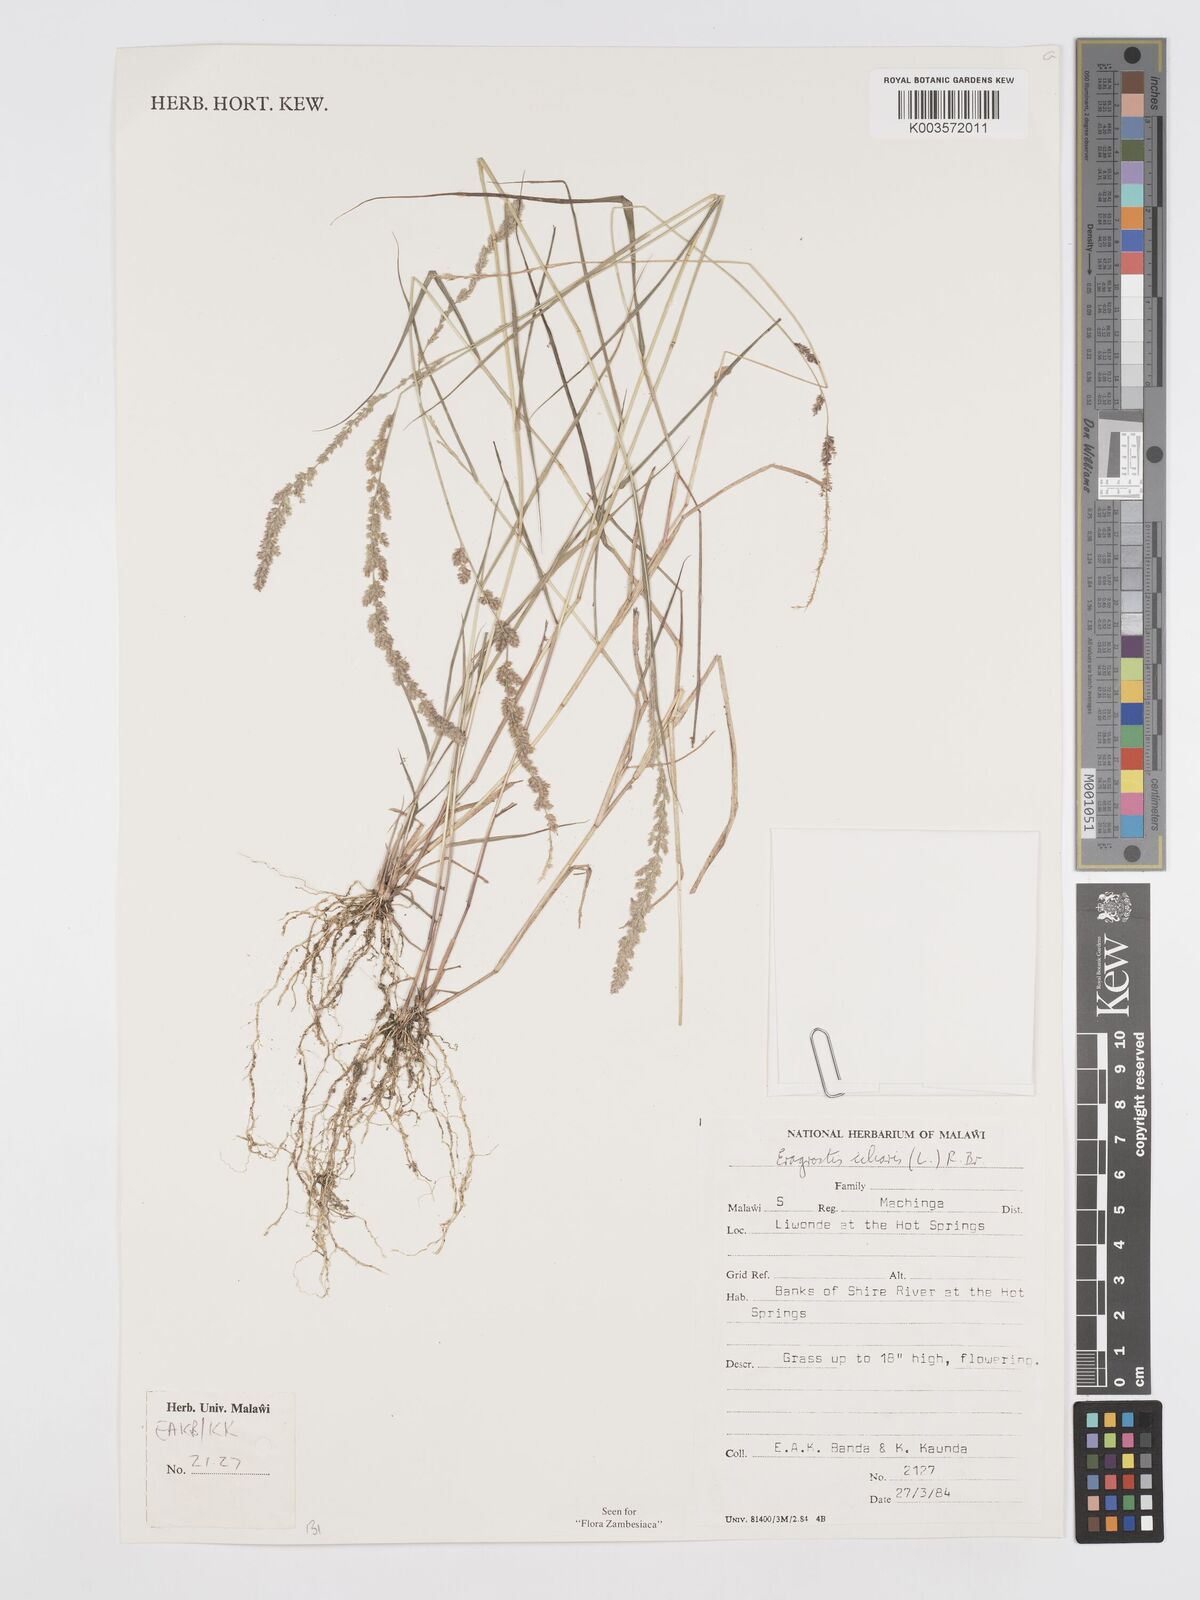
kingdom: Plantae
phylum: Tracheophyta
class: Liliopsida
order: Poales
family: Poaceae
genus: Eragrostis
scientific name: Eragrostis ciliaris
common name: Gophertail lovegrass
